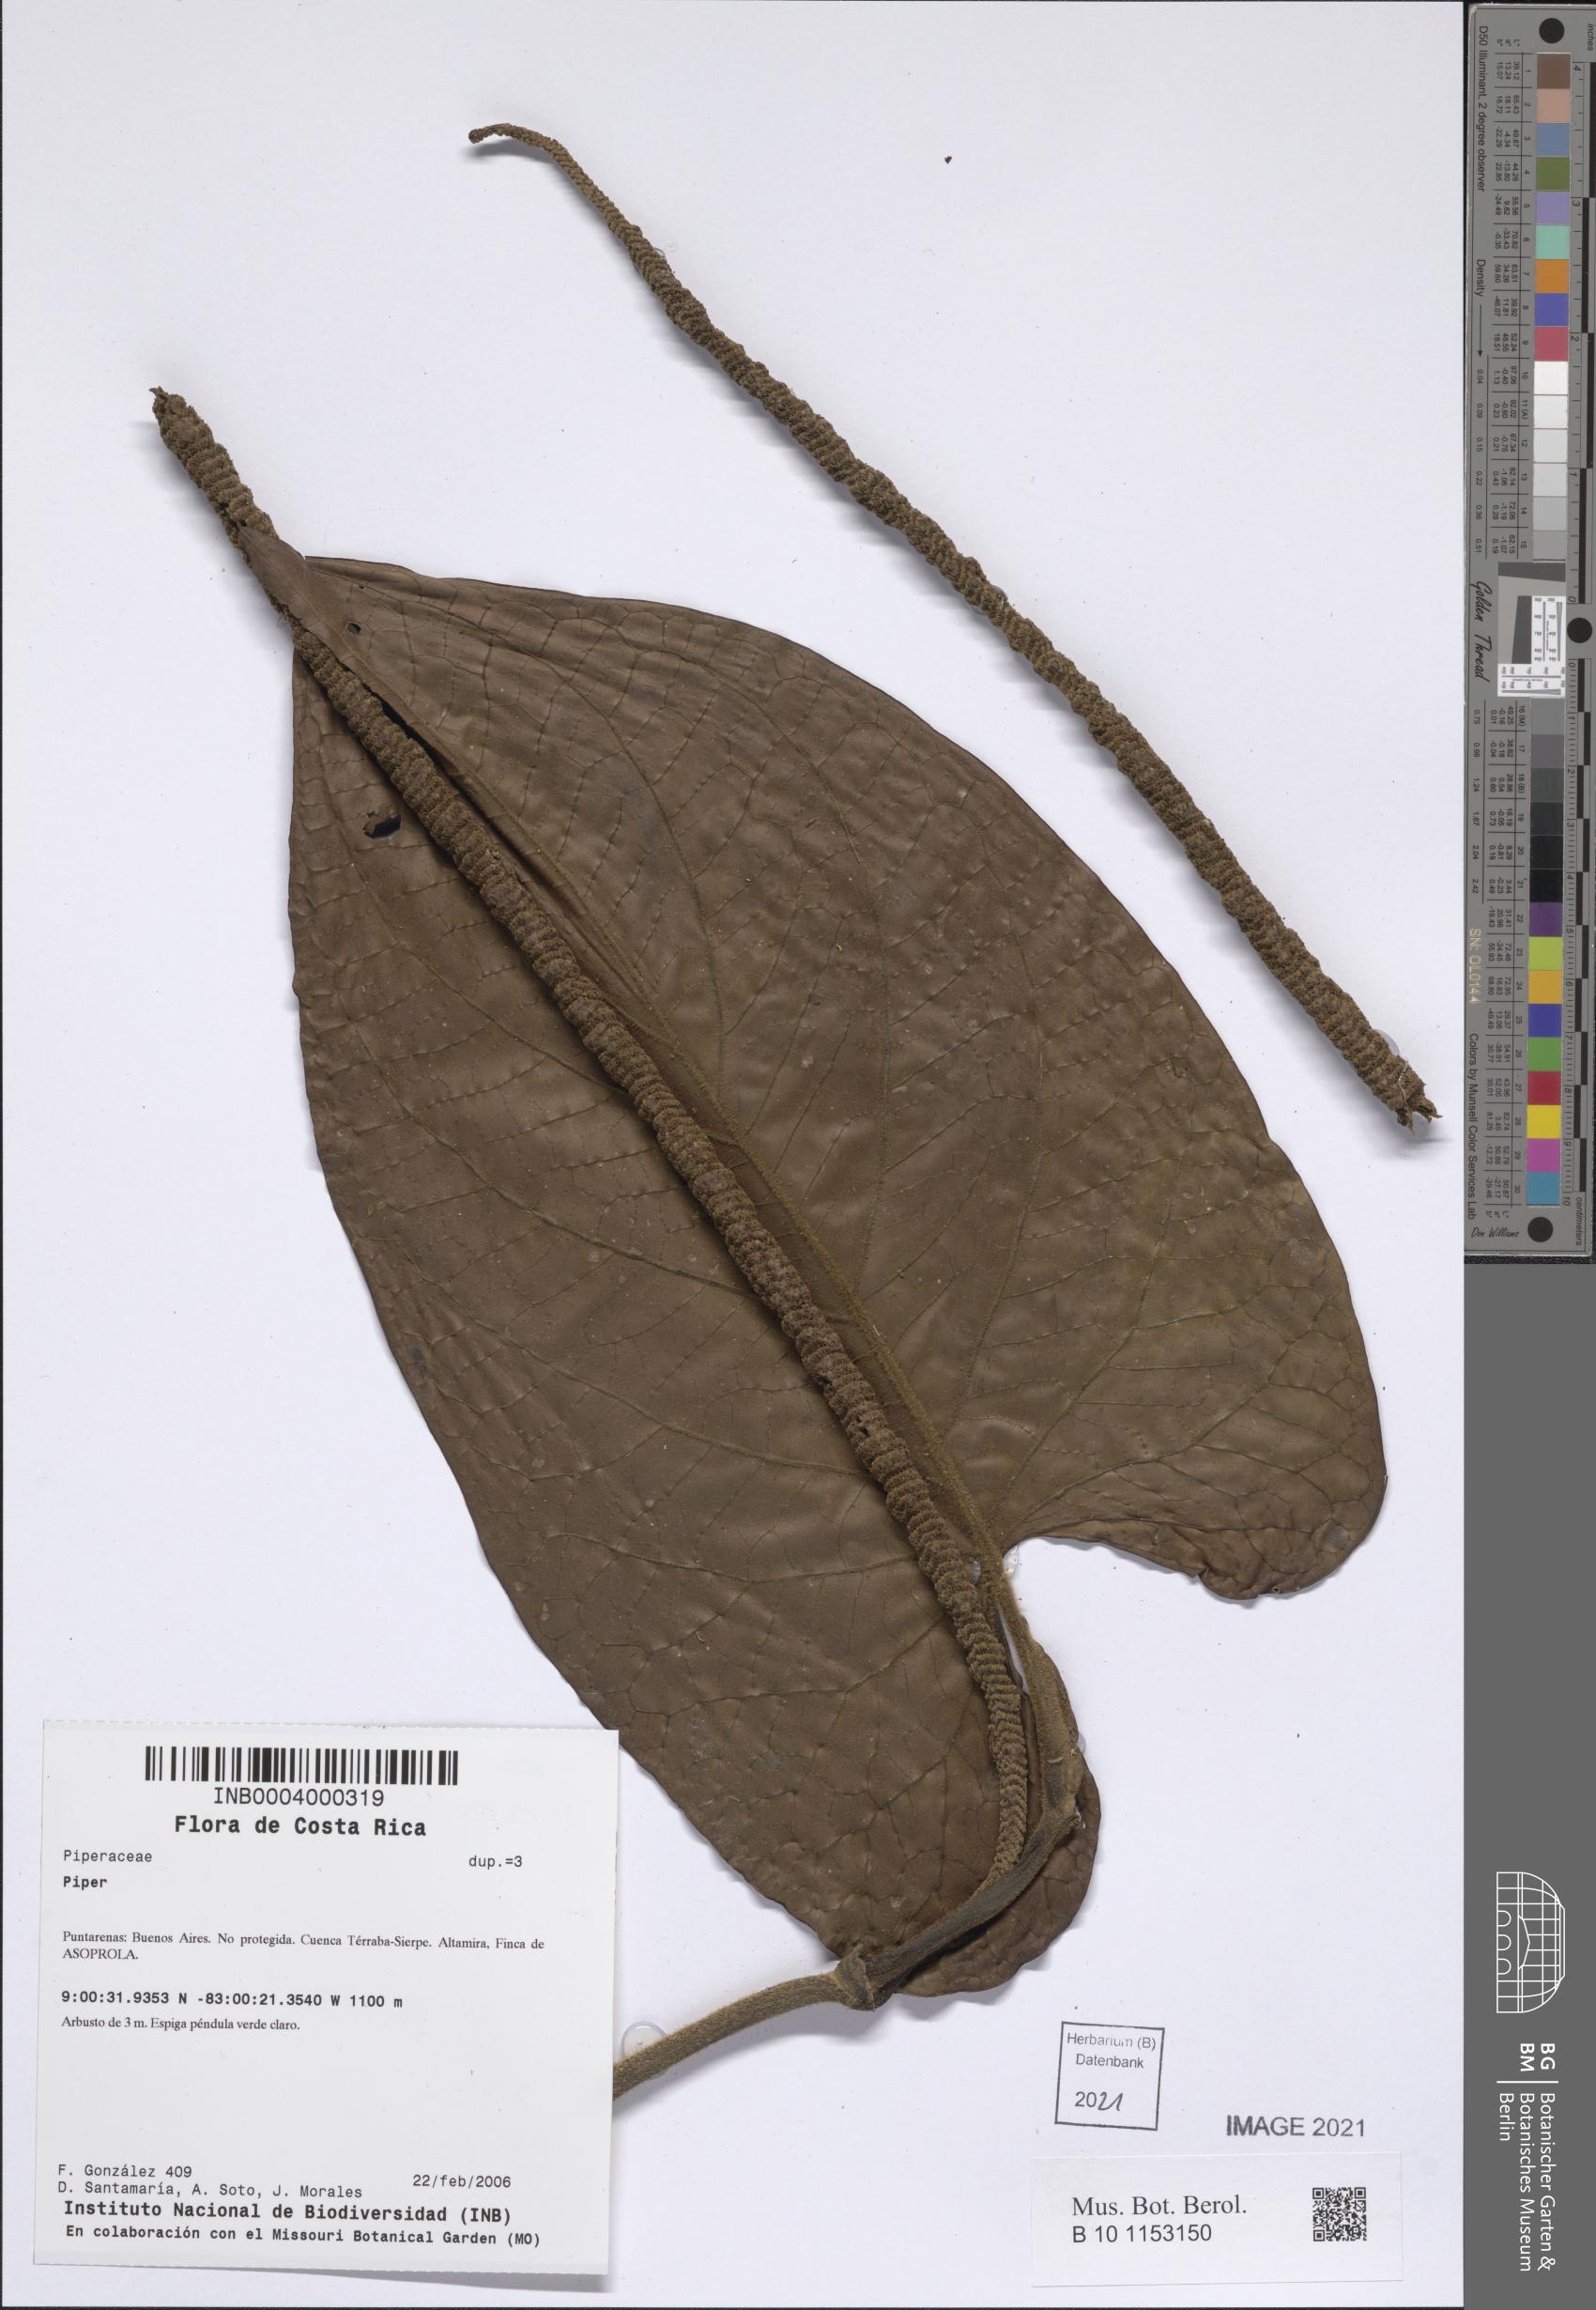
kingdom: Plantae
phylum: Tracheophyta
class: Magnoliopsida
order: Piperales
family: Piperaceae
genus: Piper
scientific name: Piper
